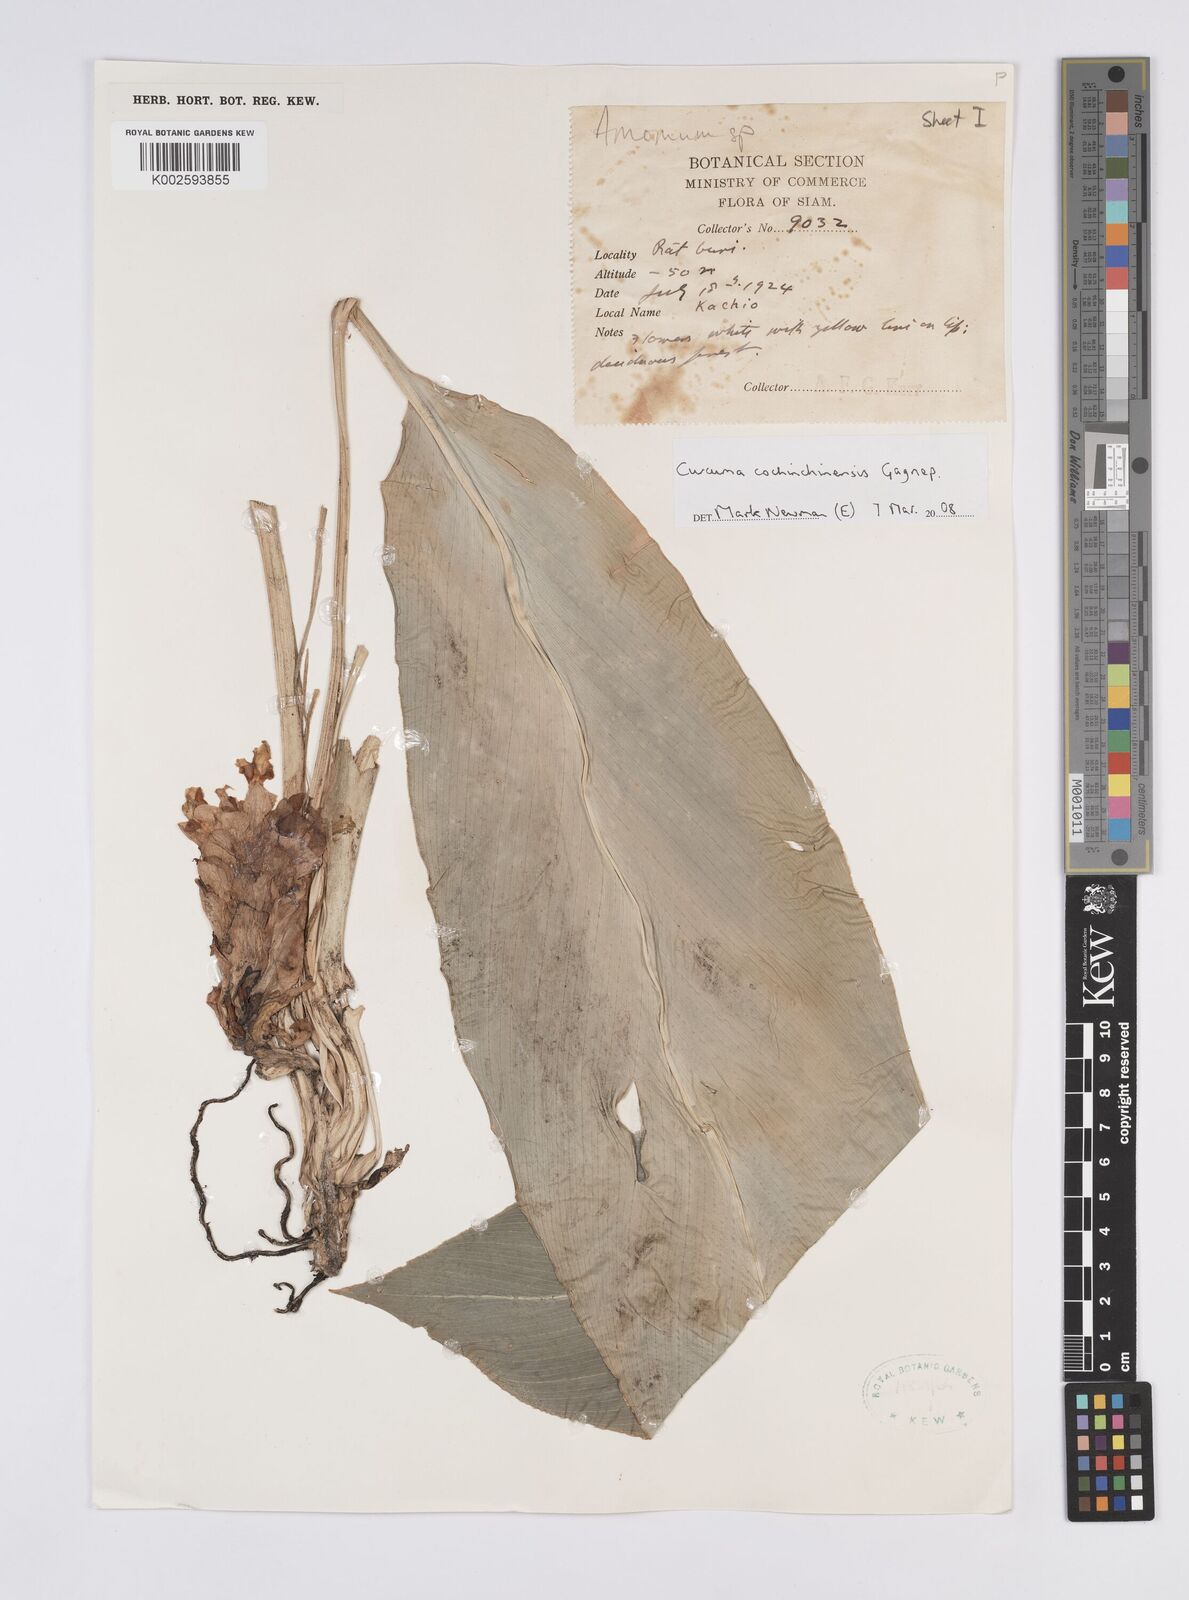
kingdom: Plantae
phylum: Tracheophyta
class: Liliopsida
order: Zingiberales
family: Zingiberaceae
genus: Curcuma
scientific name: Curcuma cochinchinensis
